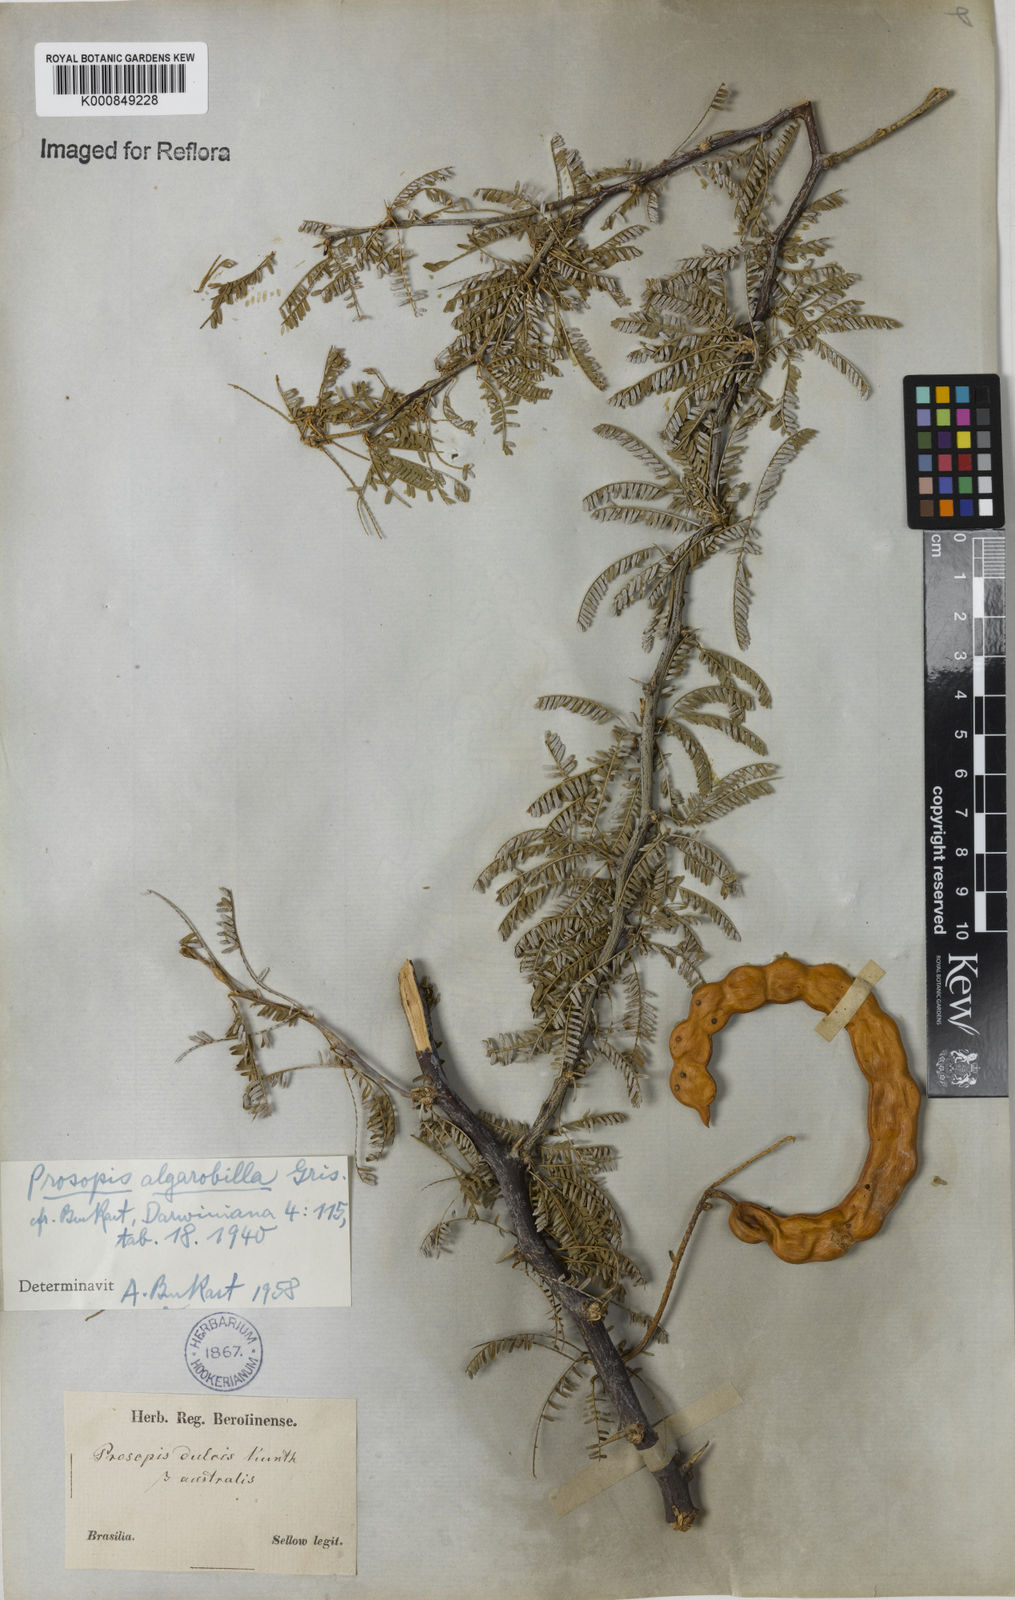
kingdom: Plantae
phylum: Tracheophyta
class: Magnoliopsida
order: Fabales
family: Fabaceae
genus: Prosopis
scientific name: Prosopis juliflora
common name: Mesquite
